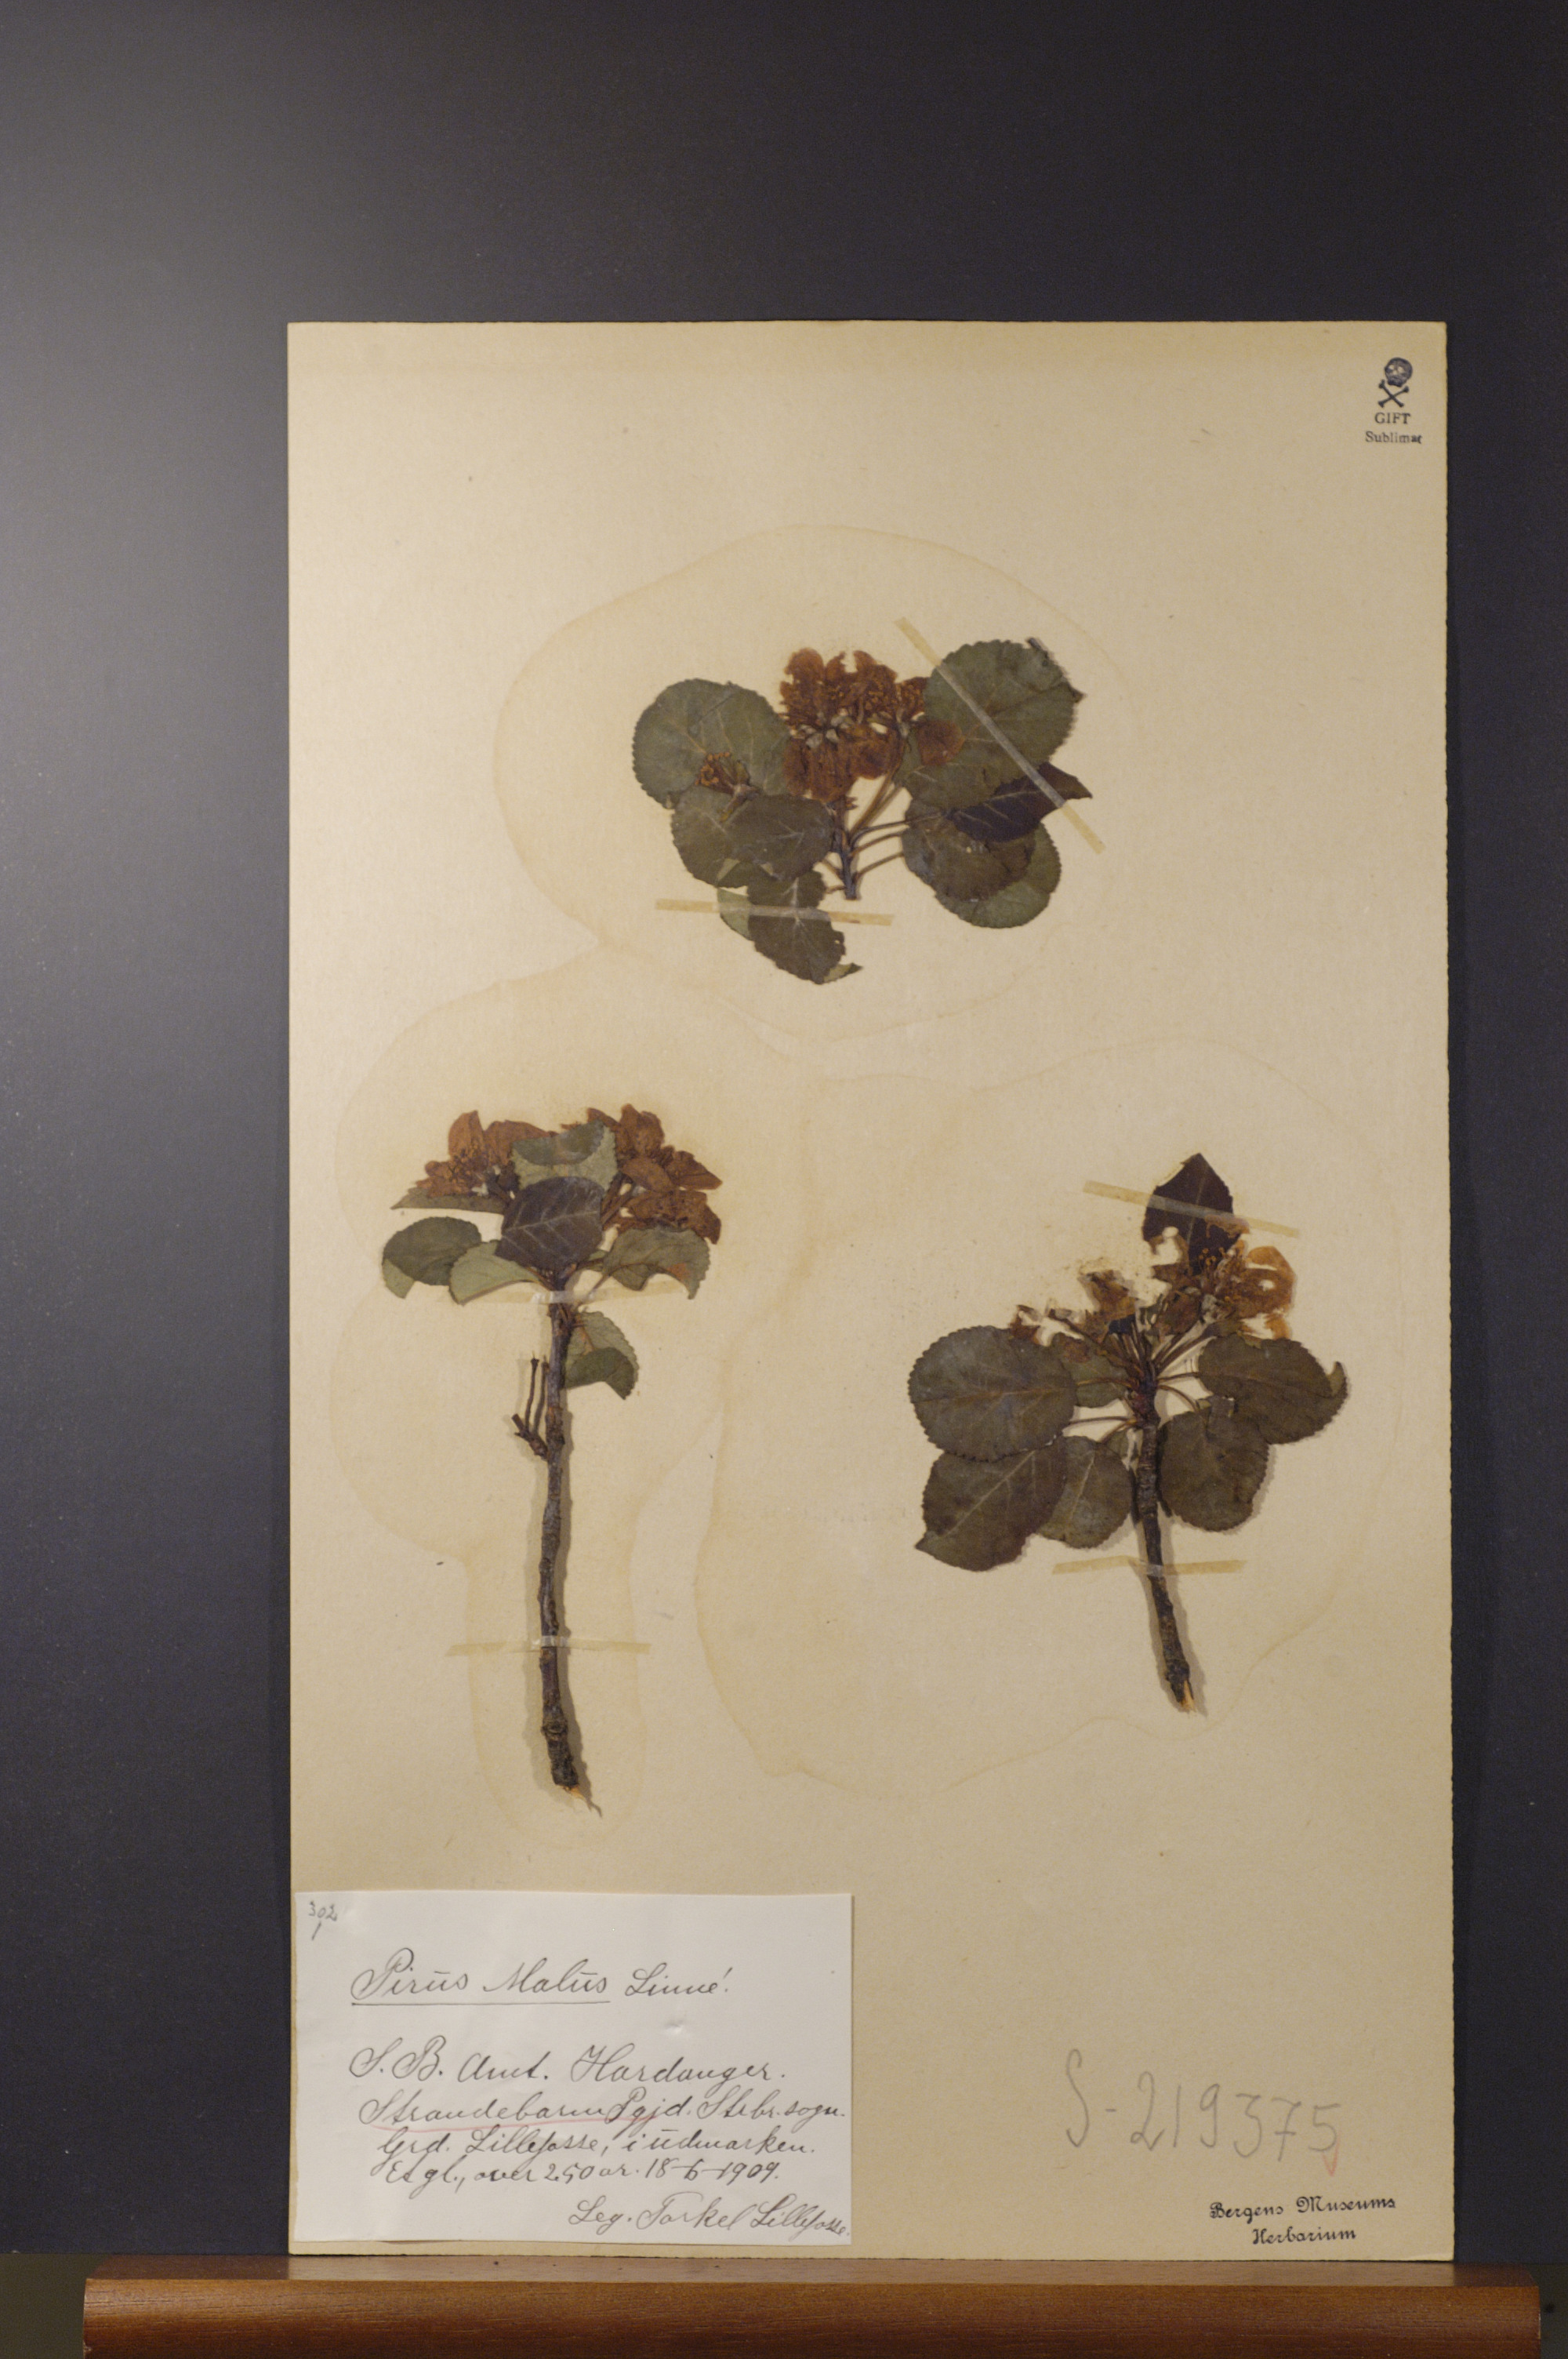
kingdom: Plantae
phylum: Tracheophyta
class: Magnoliopsida
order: Rosales
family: Rosaceae
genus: Malus
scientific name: Malus domestica
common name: Apple
